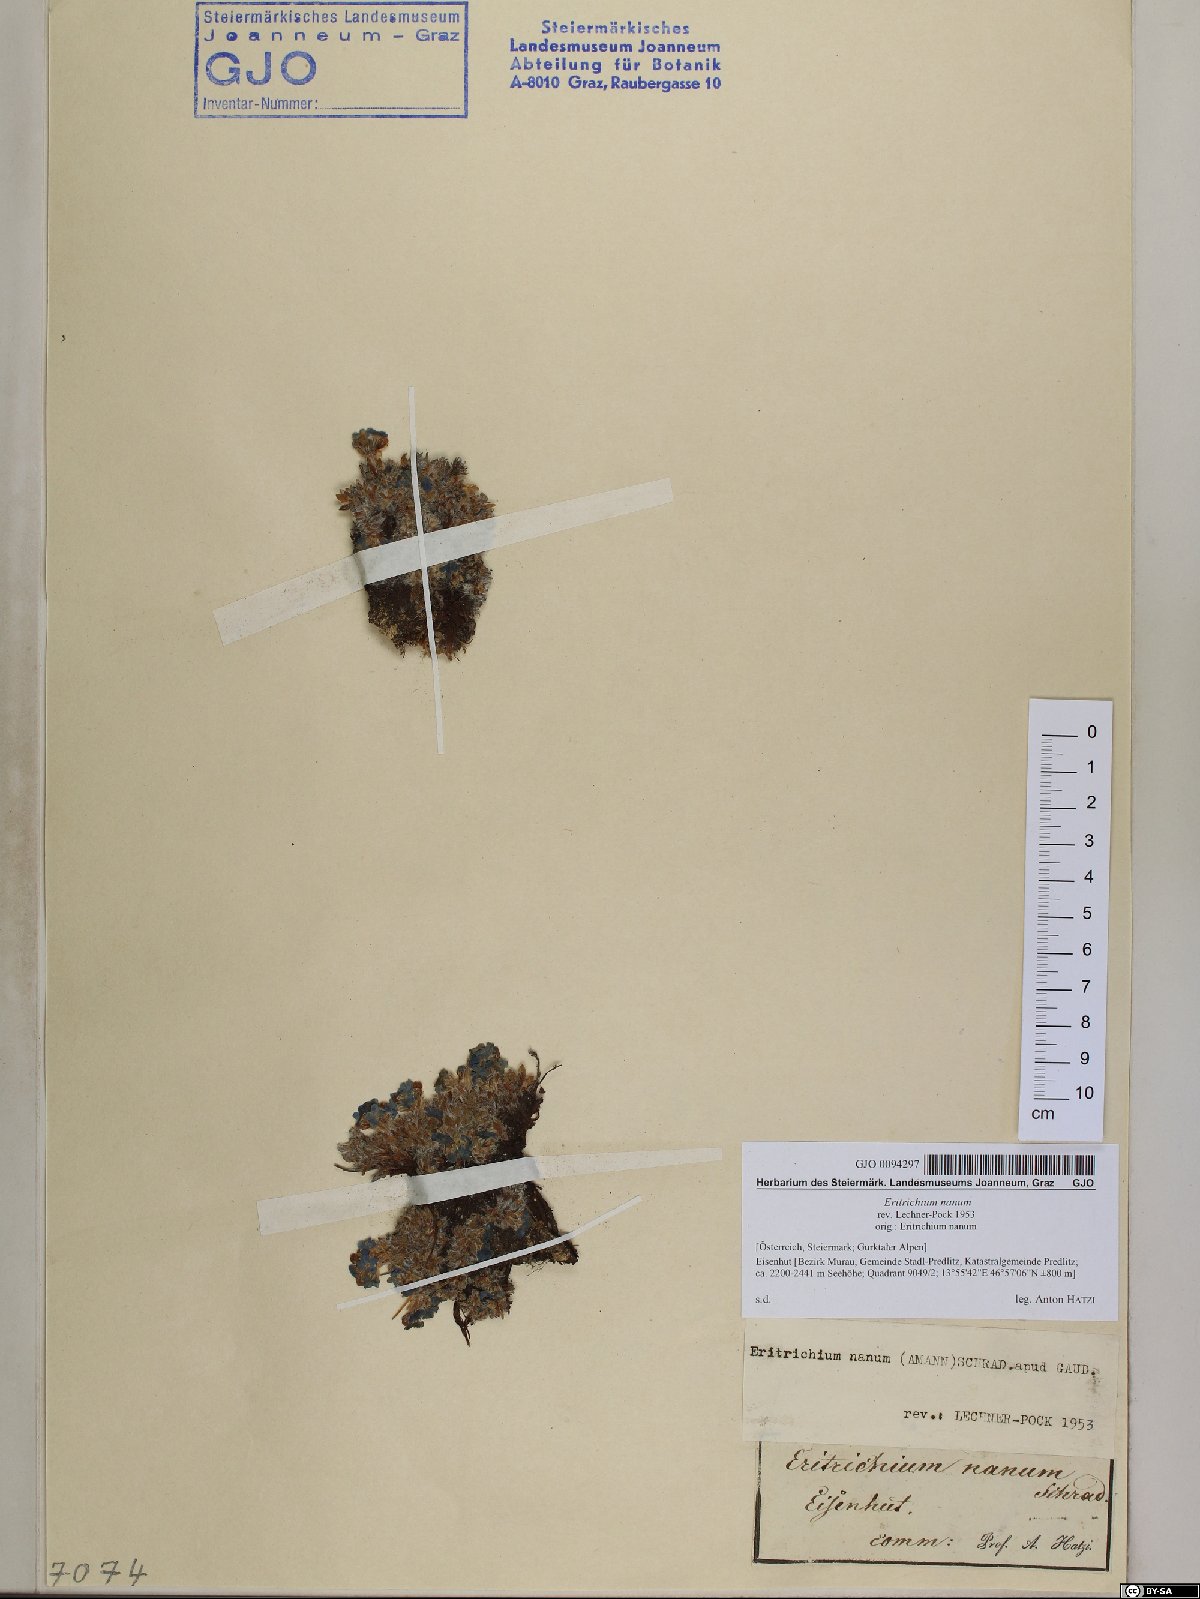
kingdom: Plantae
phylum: Tracheophyta
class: Magnoliopsida
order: Boraginales
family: Boraginaceae
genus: Eritrichium
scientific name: Eritrichium nanum
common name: King-of-the-alps
